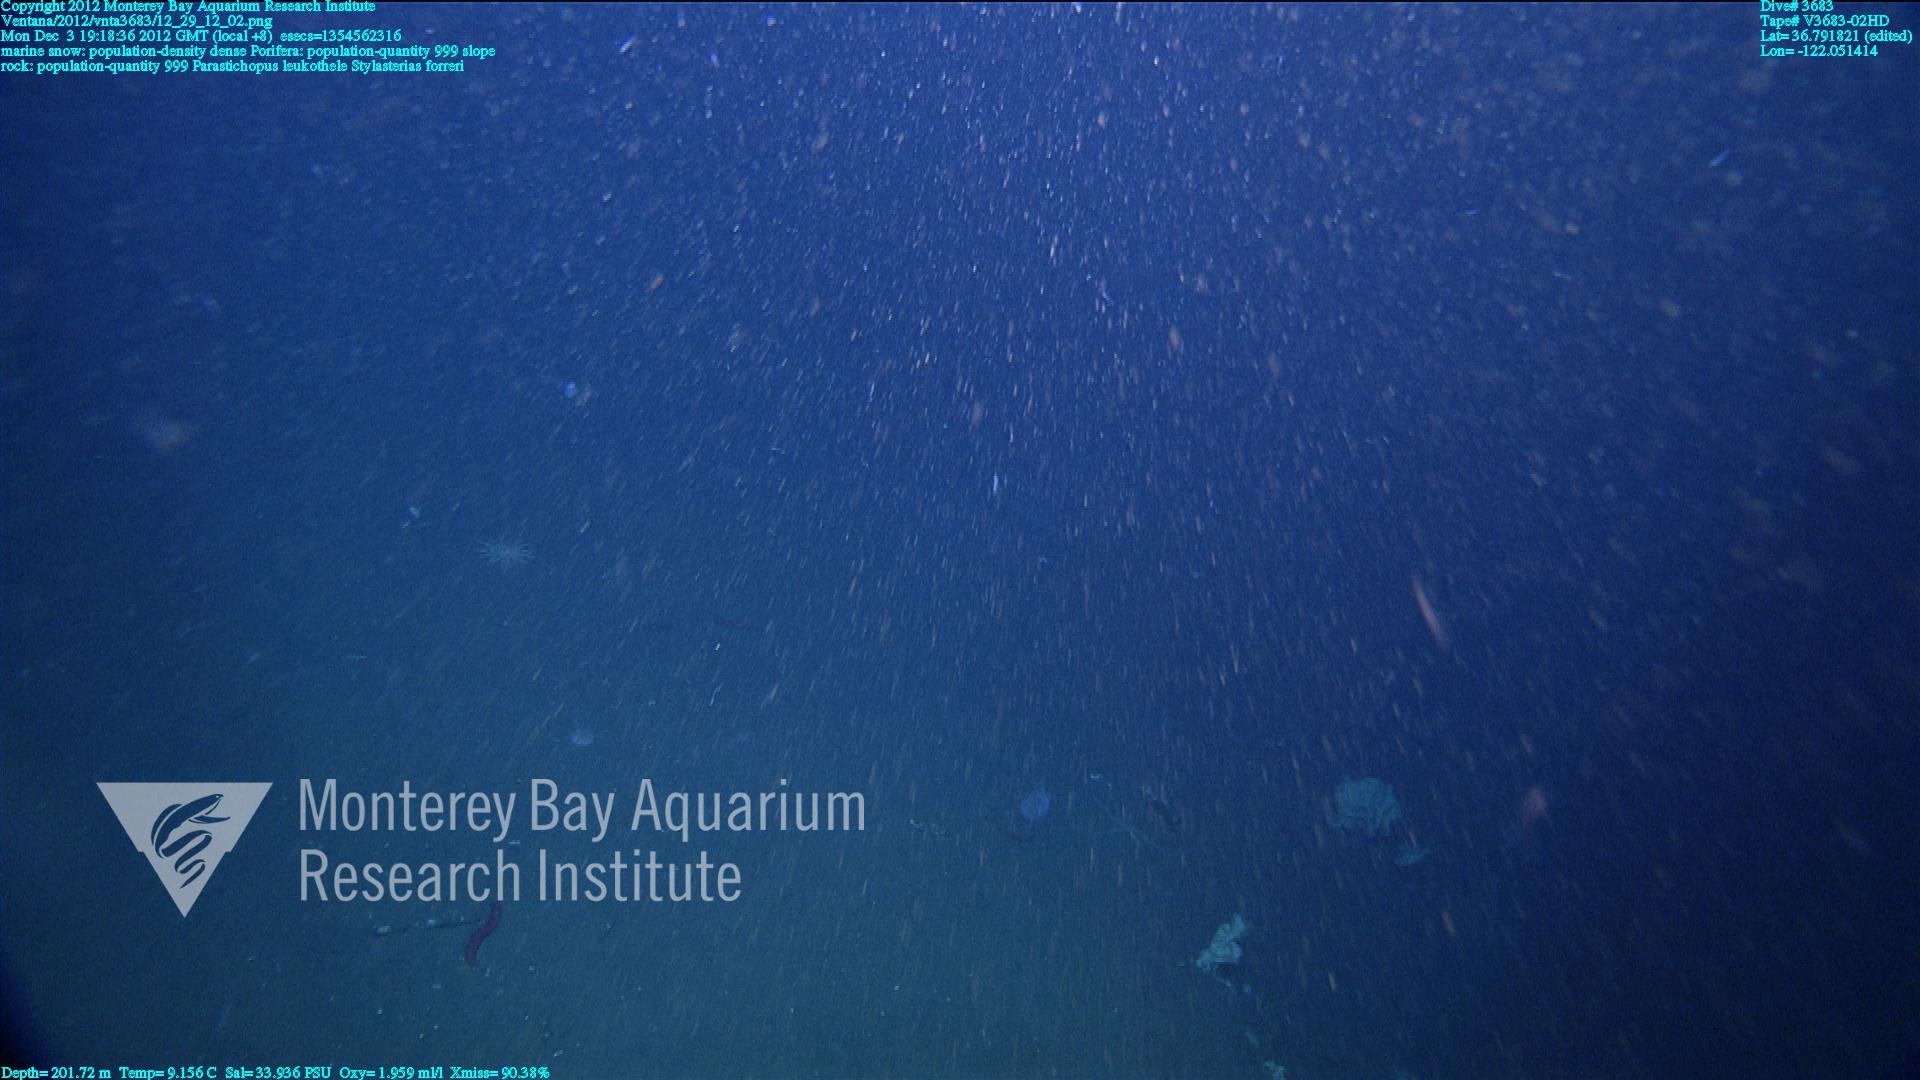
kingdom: Animalia
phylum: Porifera
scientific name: Porifera
